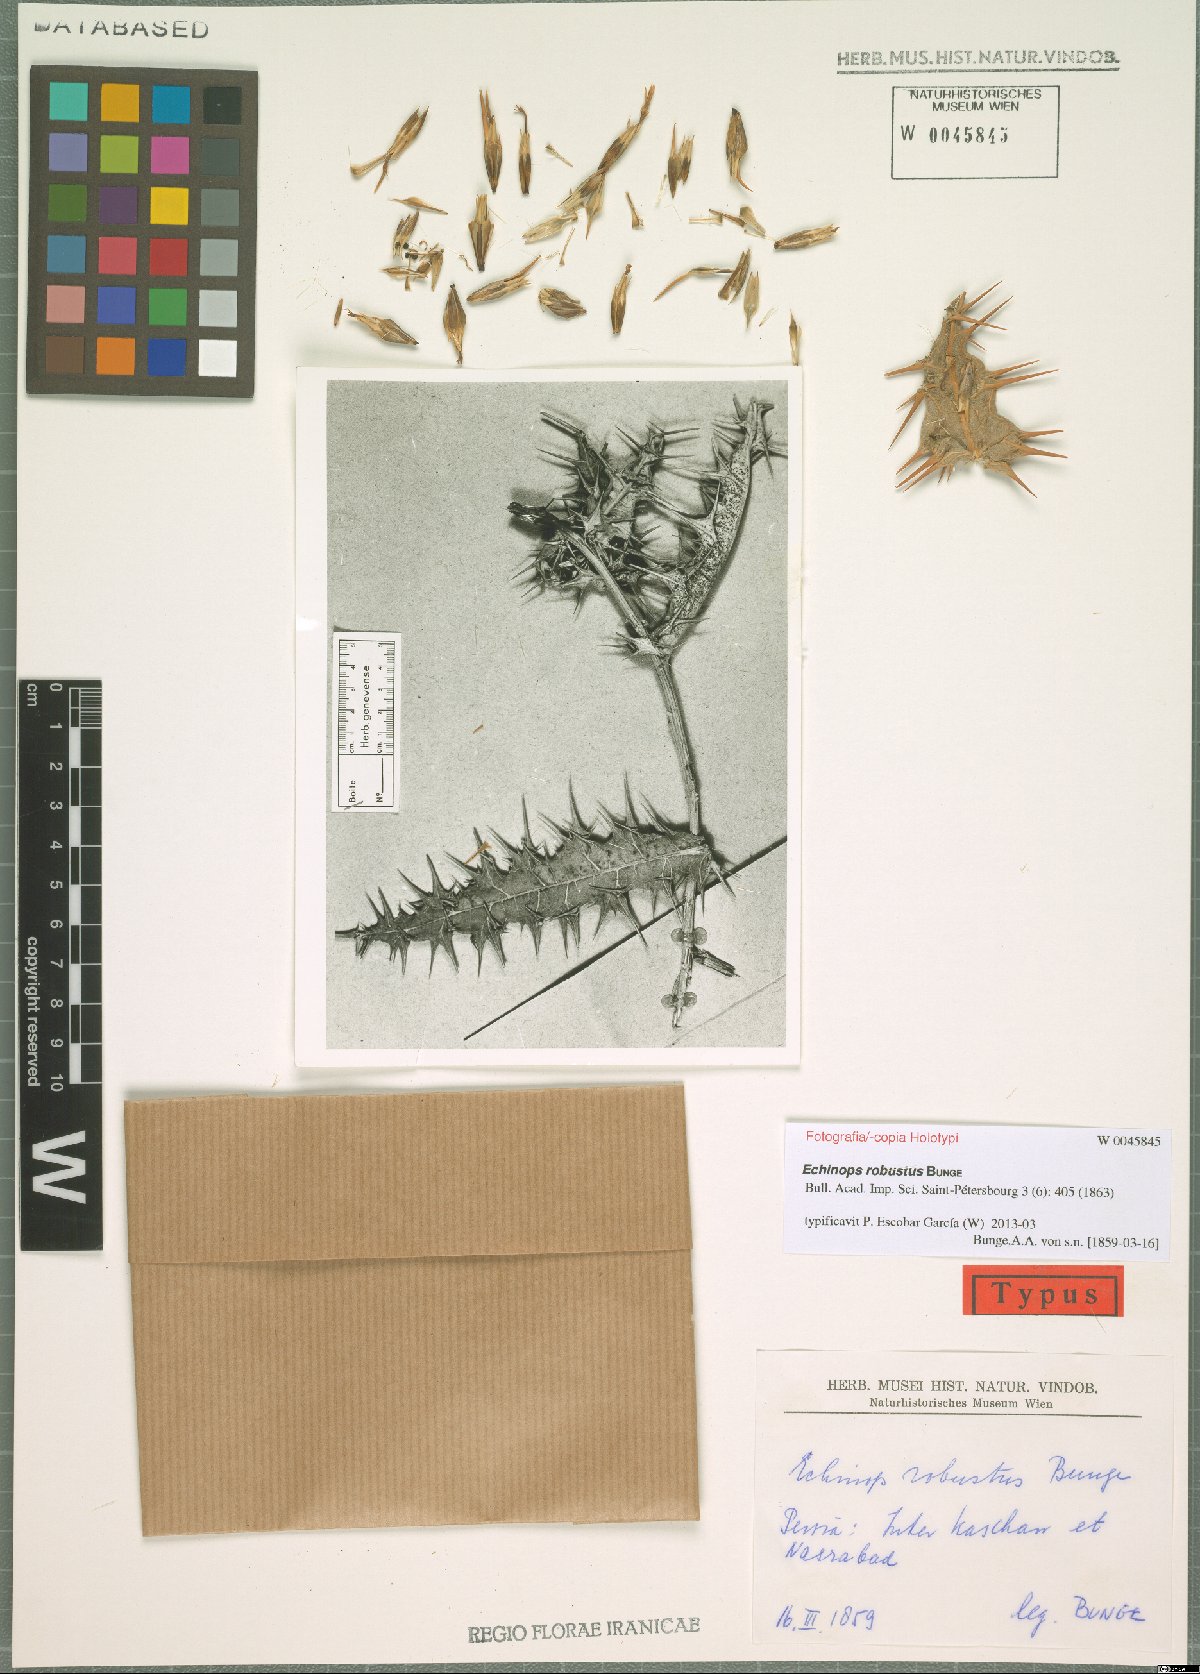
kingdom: Plantae
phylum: Tracheophyta
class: Magnoliopsida
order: Asterales
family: Asteraceae
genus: Echinops
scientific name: Echinops robustus
